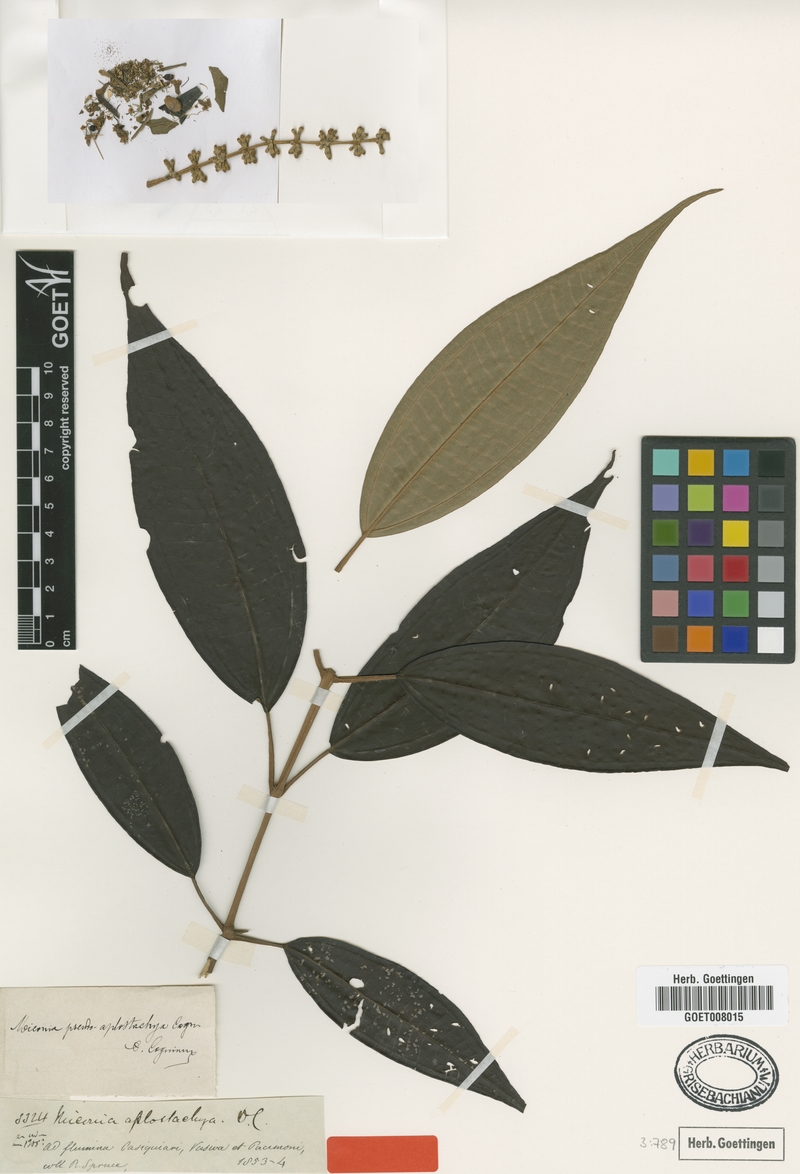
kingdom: Plantae
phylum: Tracheophyta
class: Magnoliopsida
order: Myrtales
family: Melastomataceae
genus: Miconia
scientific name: Miconia pseudoaplostachya
